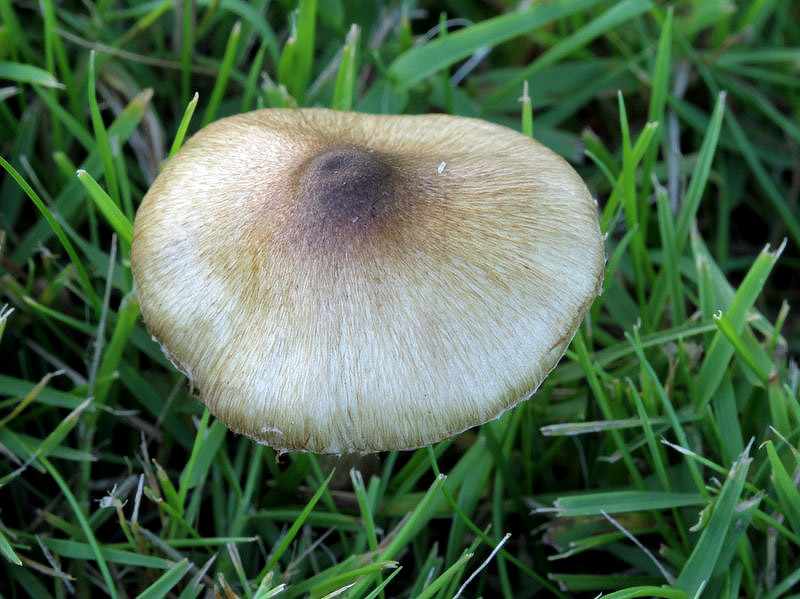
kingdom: Fungi
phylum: Basidiomycota
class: Agaricomycetes
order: Agaricales
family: Inocybaceae
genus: Inocybe
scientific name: Inocybe curvipes
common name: plæne-trævlhat
